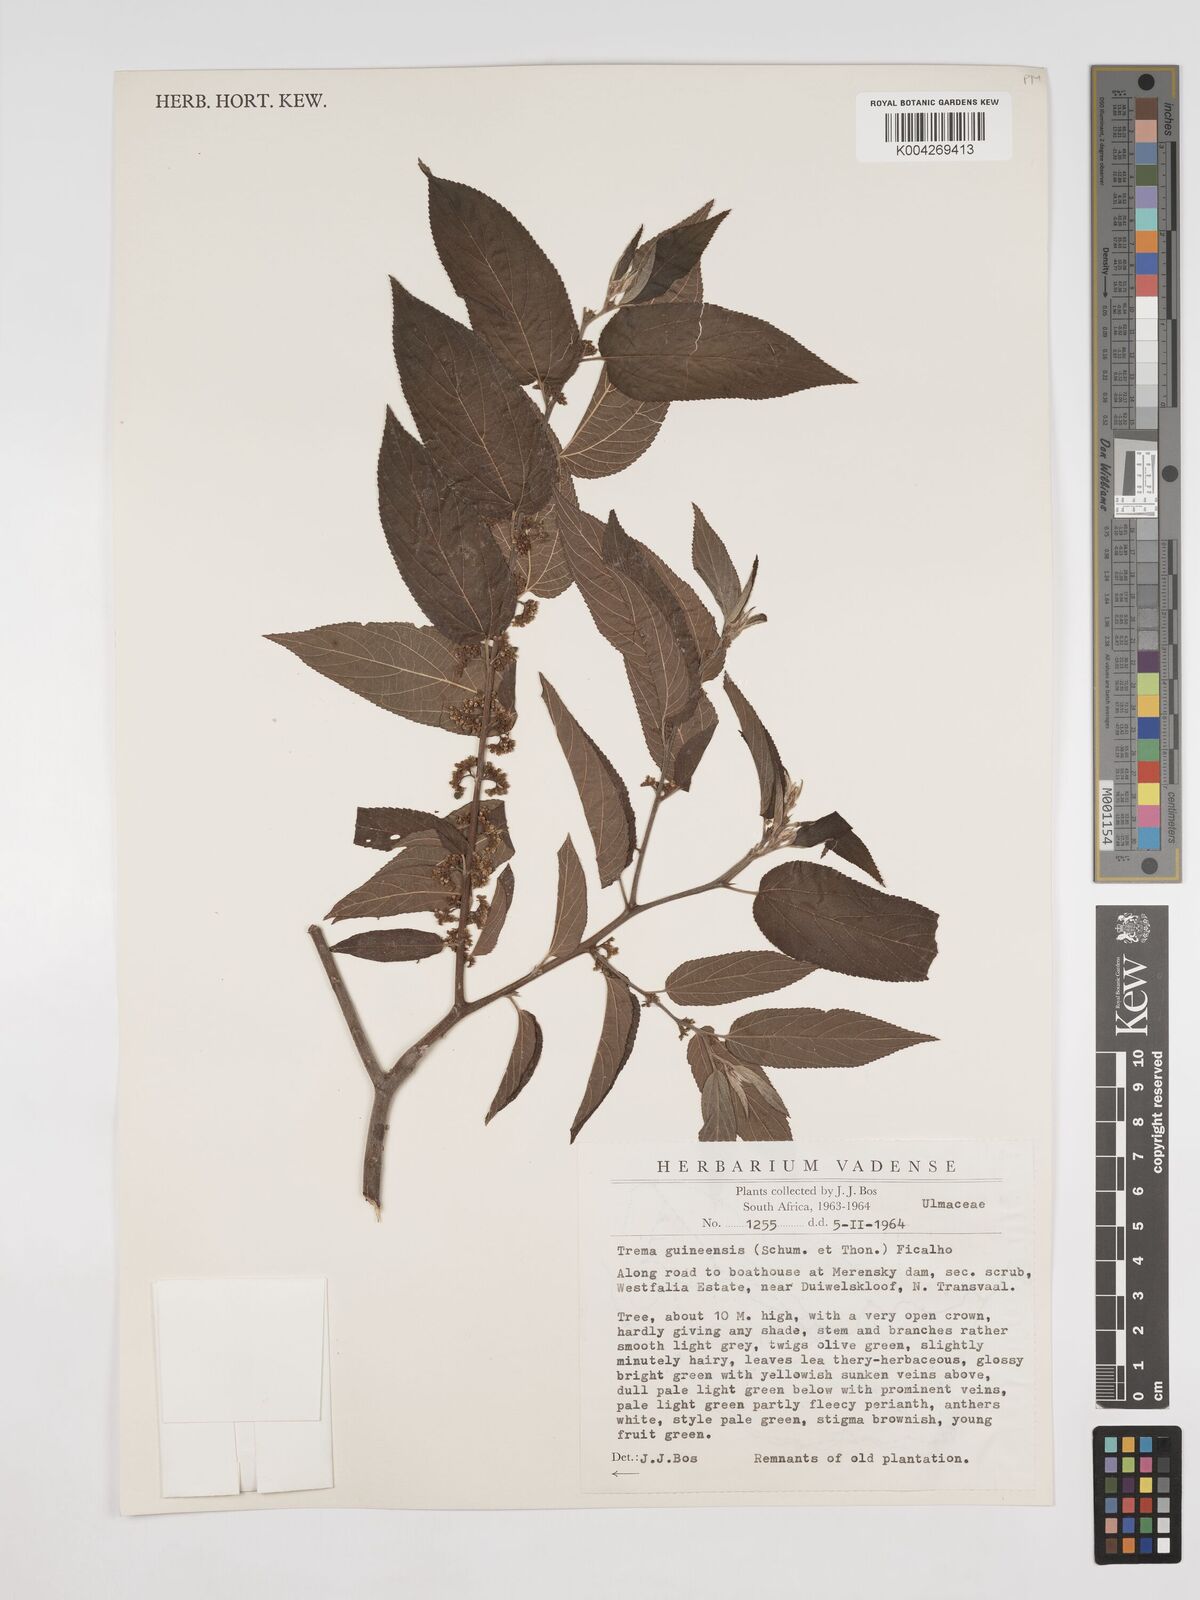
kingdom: Plantae
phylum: Tracheophyta
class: Magnoliopsida
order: Rosales
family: Cannabaceae
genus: Trema
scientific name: Trema orientale
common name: Indian charcoal tree
